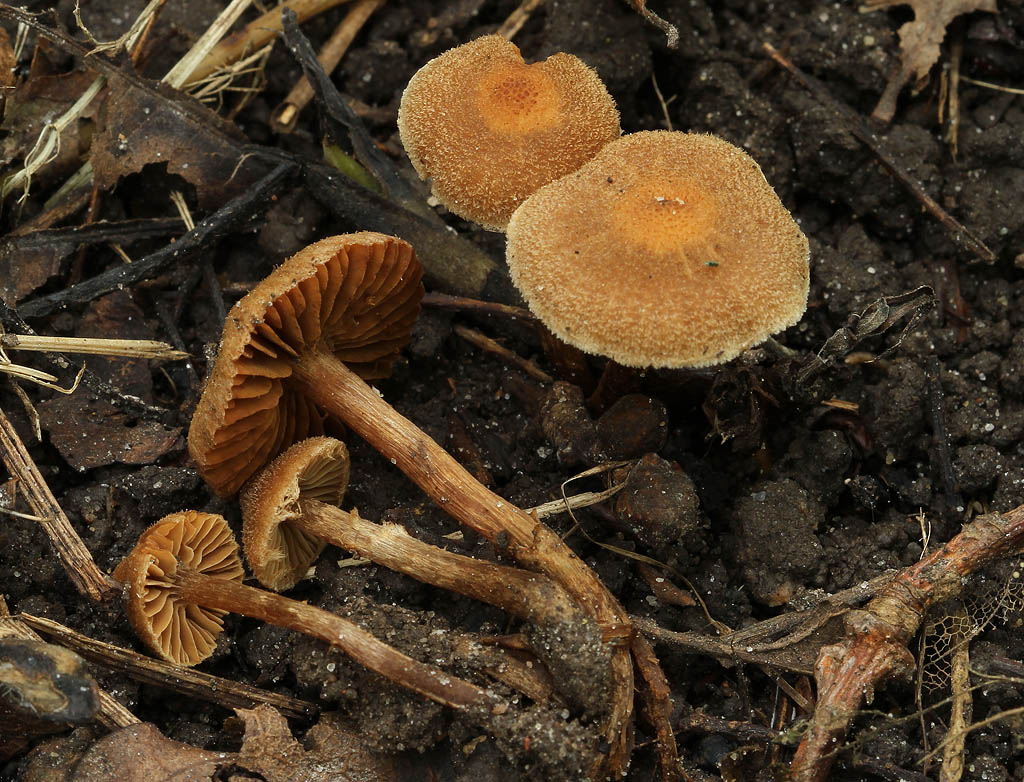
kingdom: Fungi
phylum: Basidiomycota
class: Agaricomycetes
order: Agaricales
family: Cortinariaceae
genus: Cortinarius
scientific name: Cortinarius quercoconicus
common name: agernskål-slørhat
